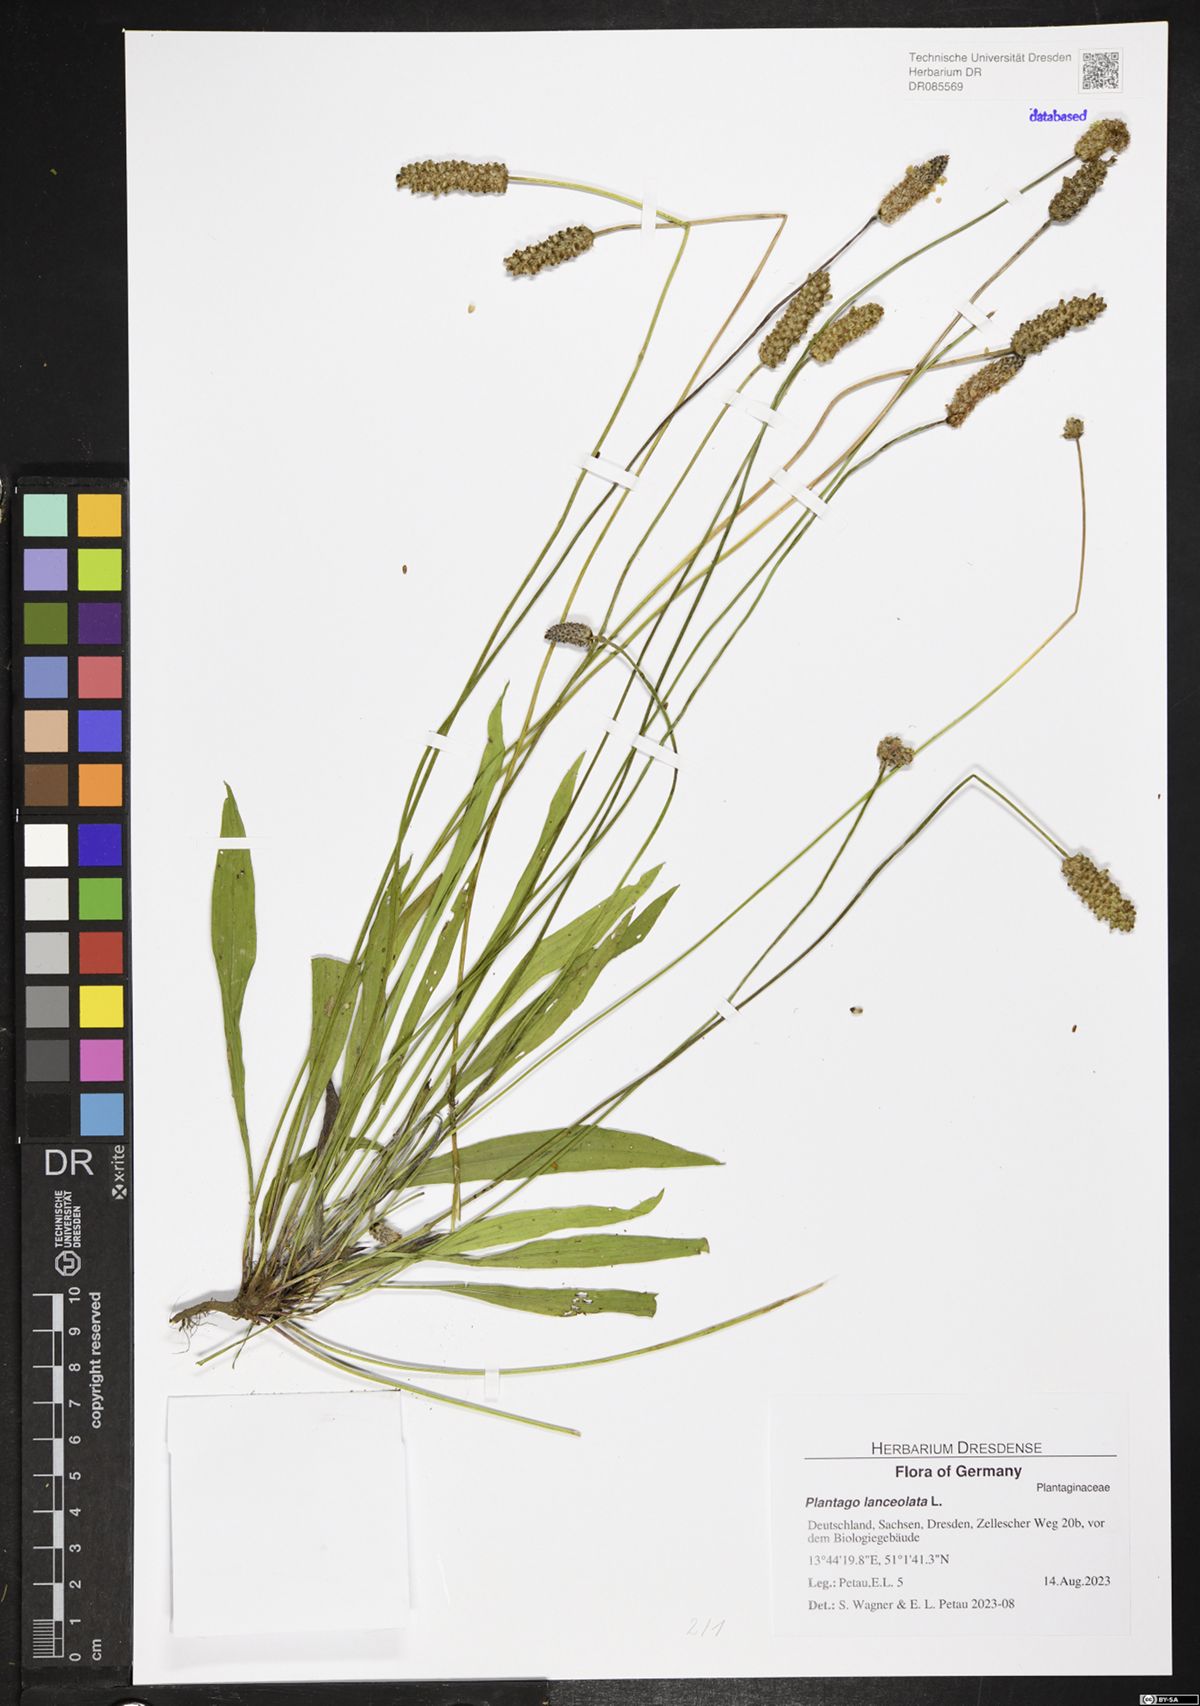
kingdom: Plantae
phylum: Tracheophyta
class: Magnoliopsida
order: Lamiales
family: Plantaginaceae
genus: Plantago
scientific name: Plantago lanceolata
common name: Ribwort plantain
